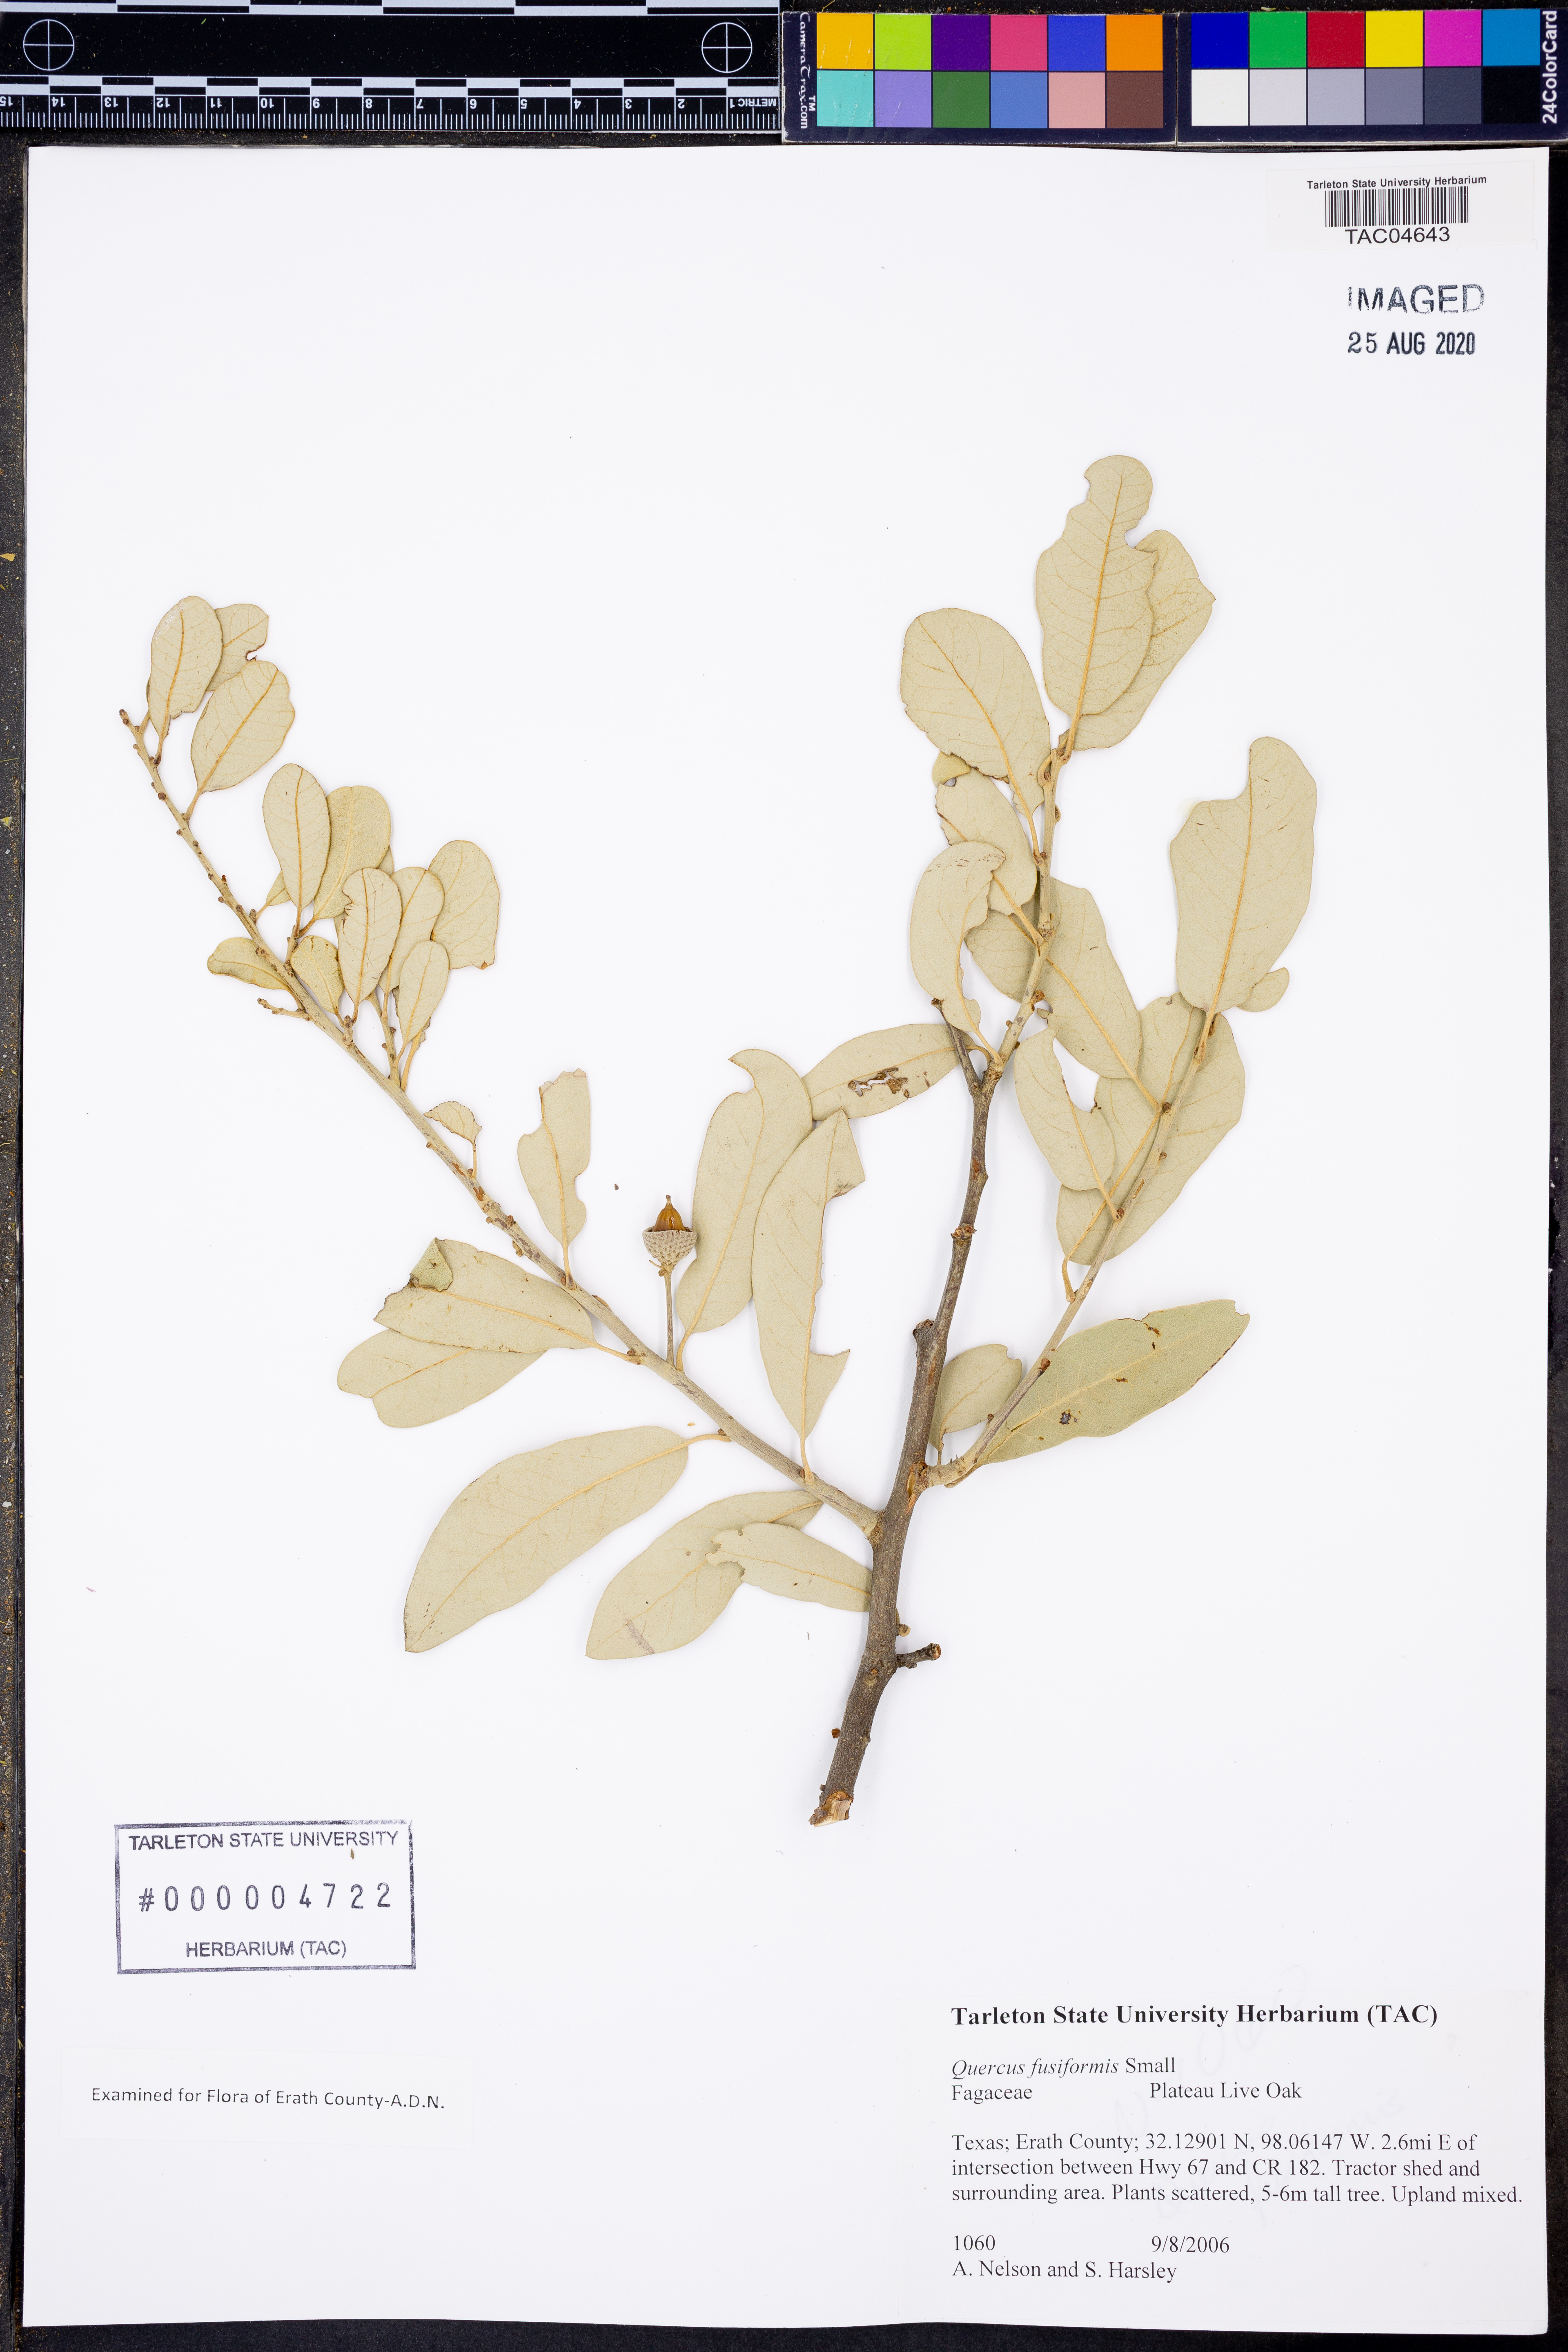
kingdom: Plantae
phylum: Tracheophyta
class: Magnoliopsida
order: Fagales
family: Fagaceae
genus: Quercus
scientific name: Quercus fusiformis
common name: Texas live oak
